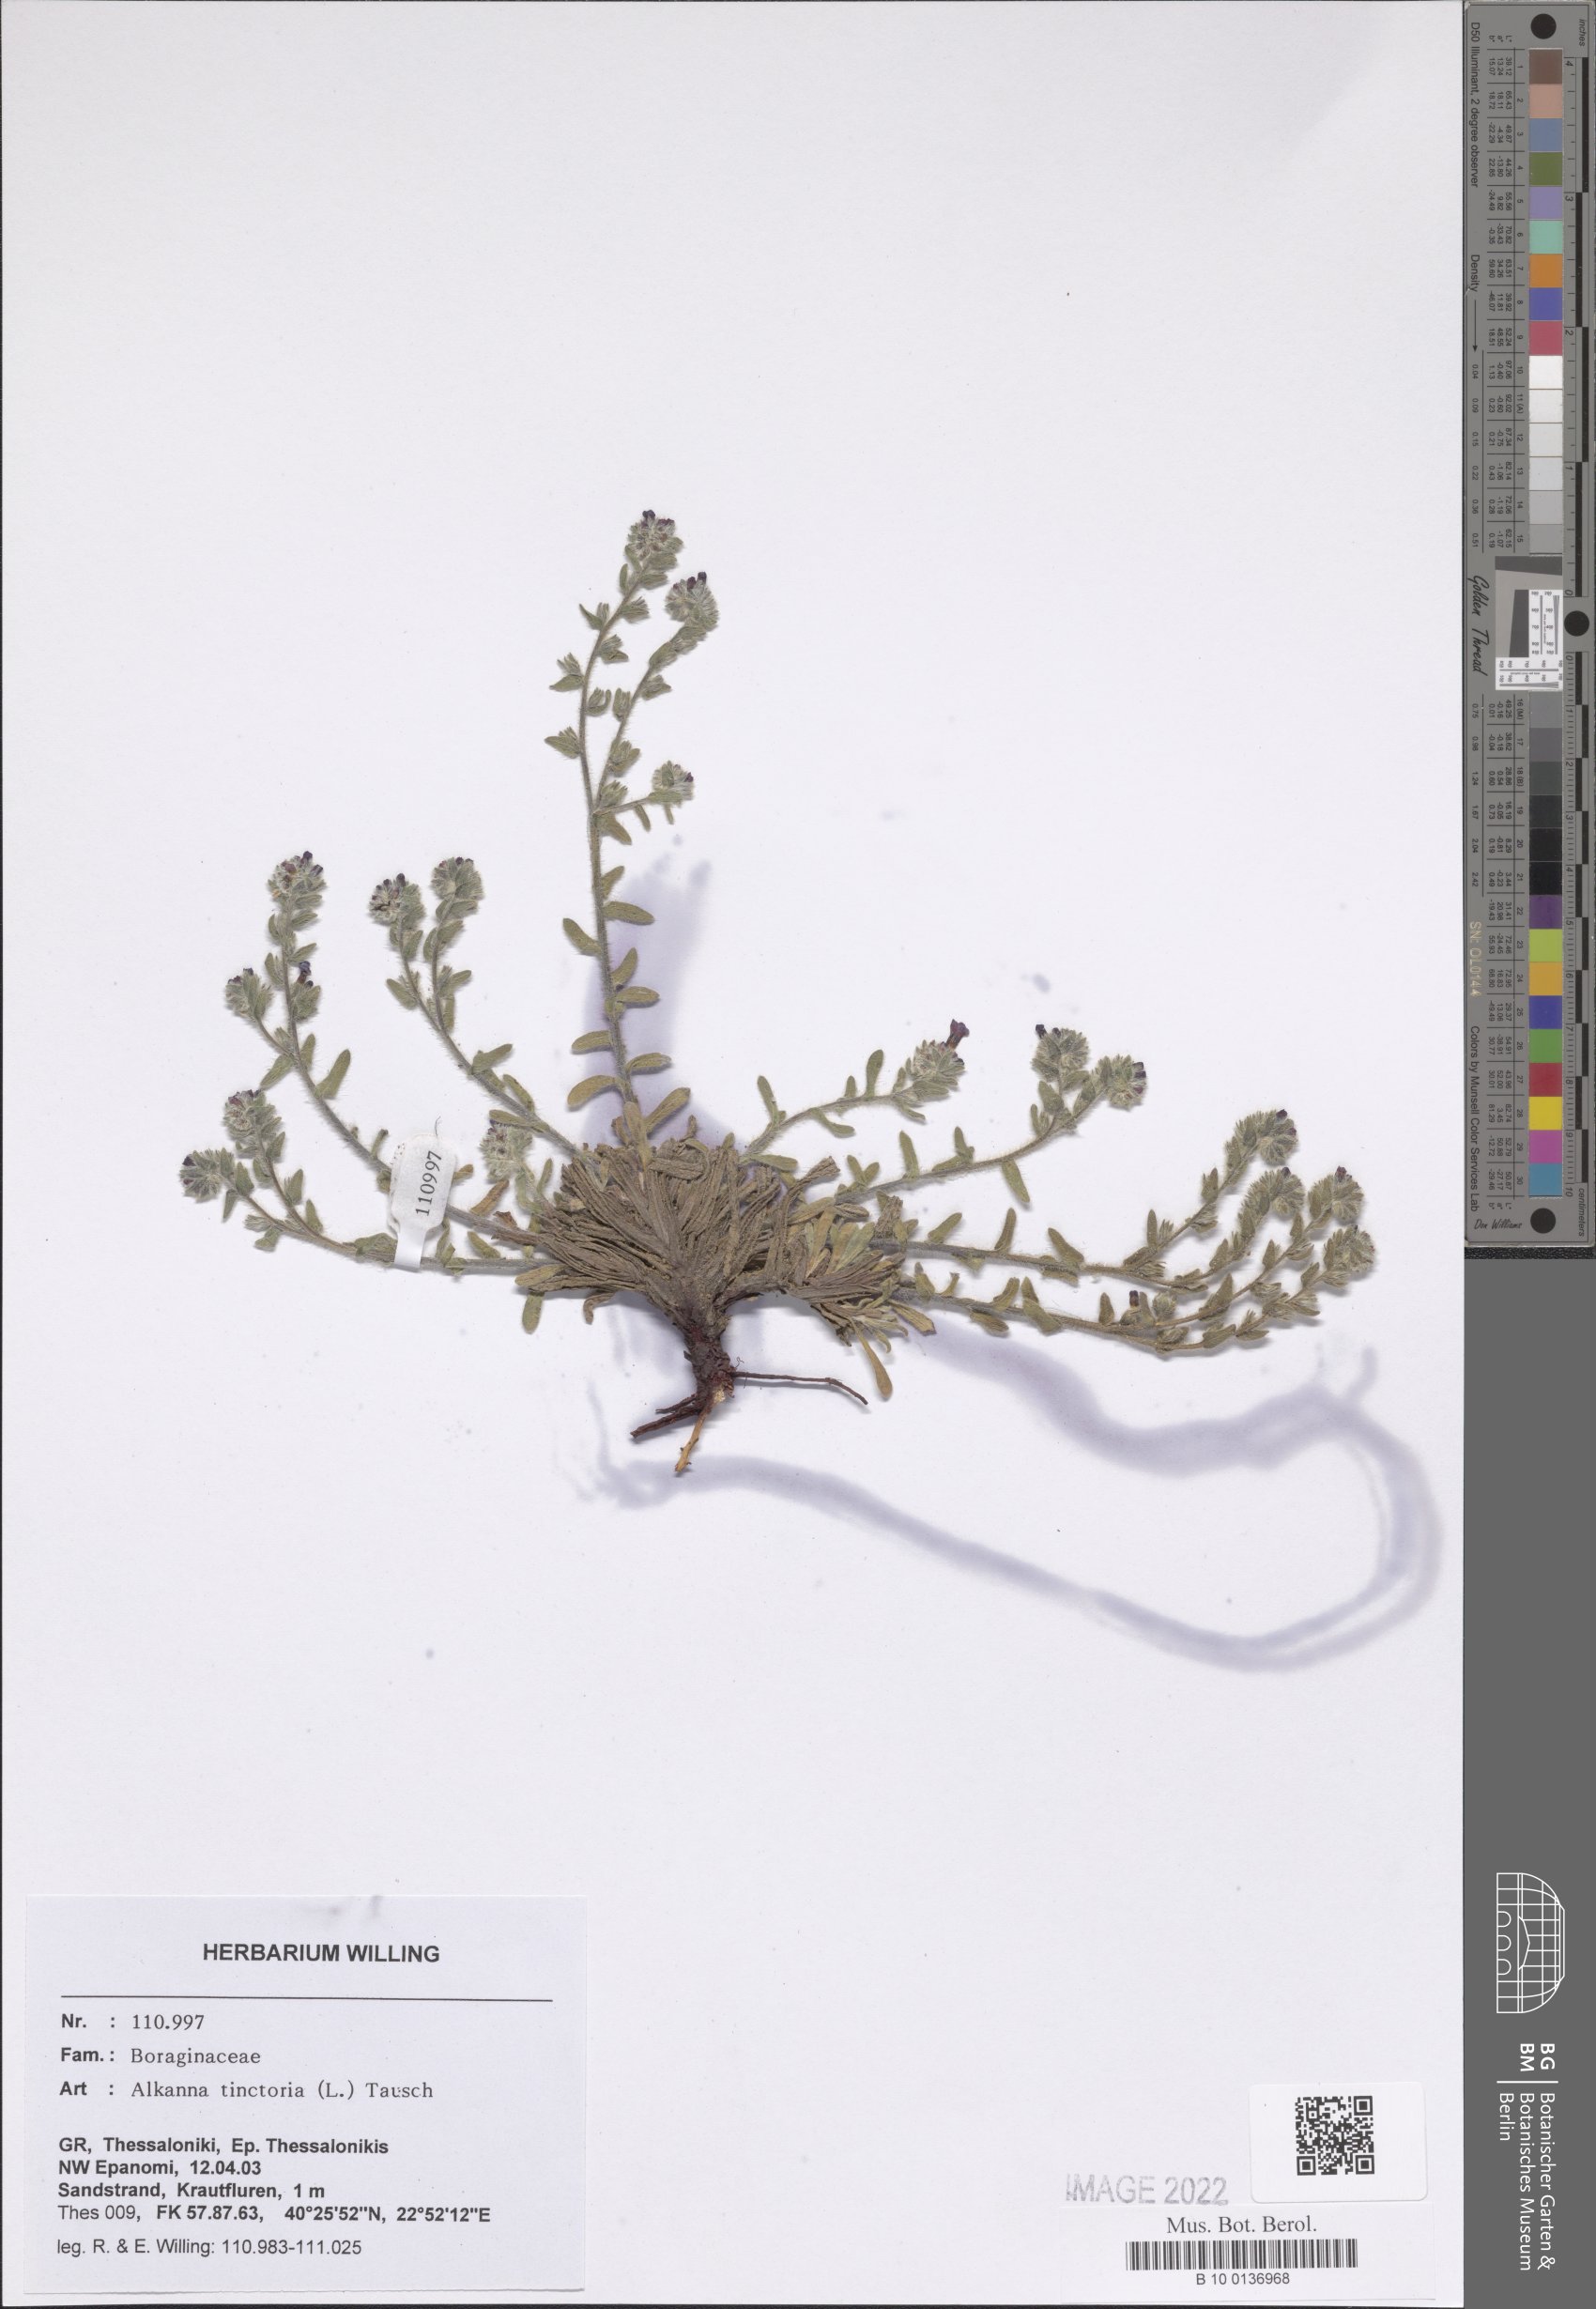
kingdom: Plantae
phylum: Tracheophyta
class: Magnoliopsida
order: Boraginales
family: Boraginaceae
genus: Alkanna
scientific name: Alkanna tinctoria
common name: Dyer's-alkanet
